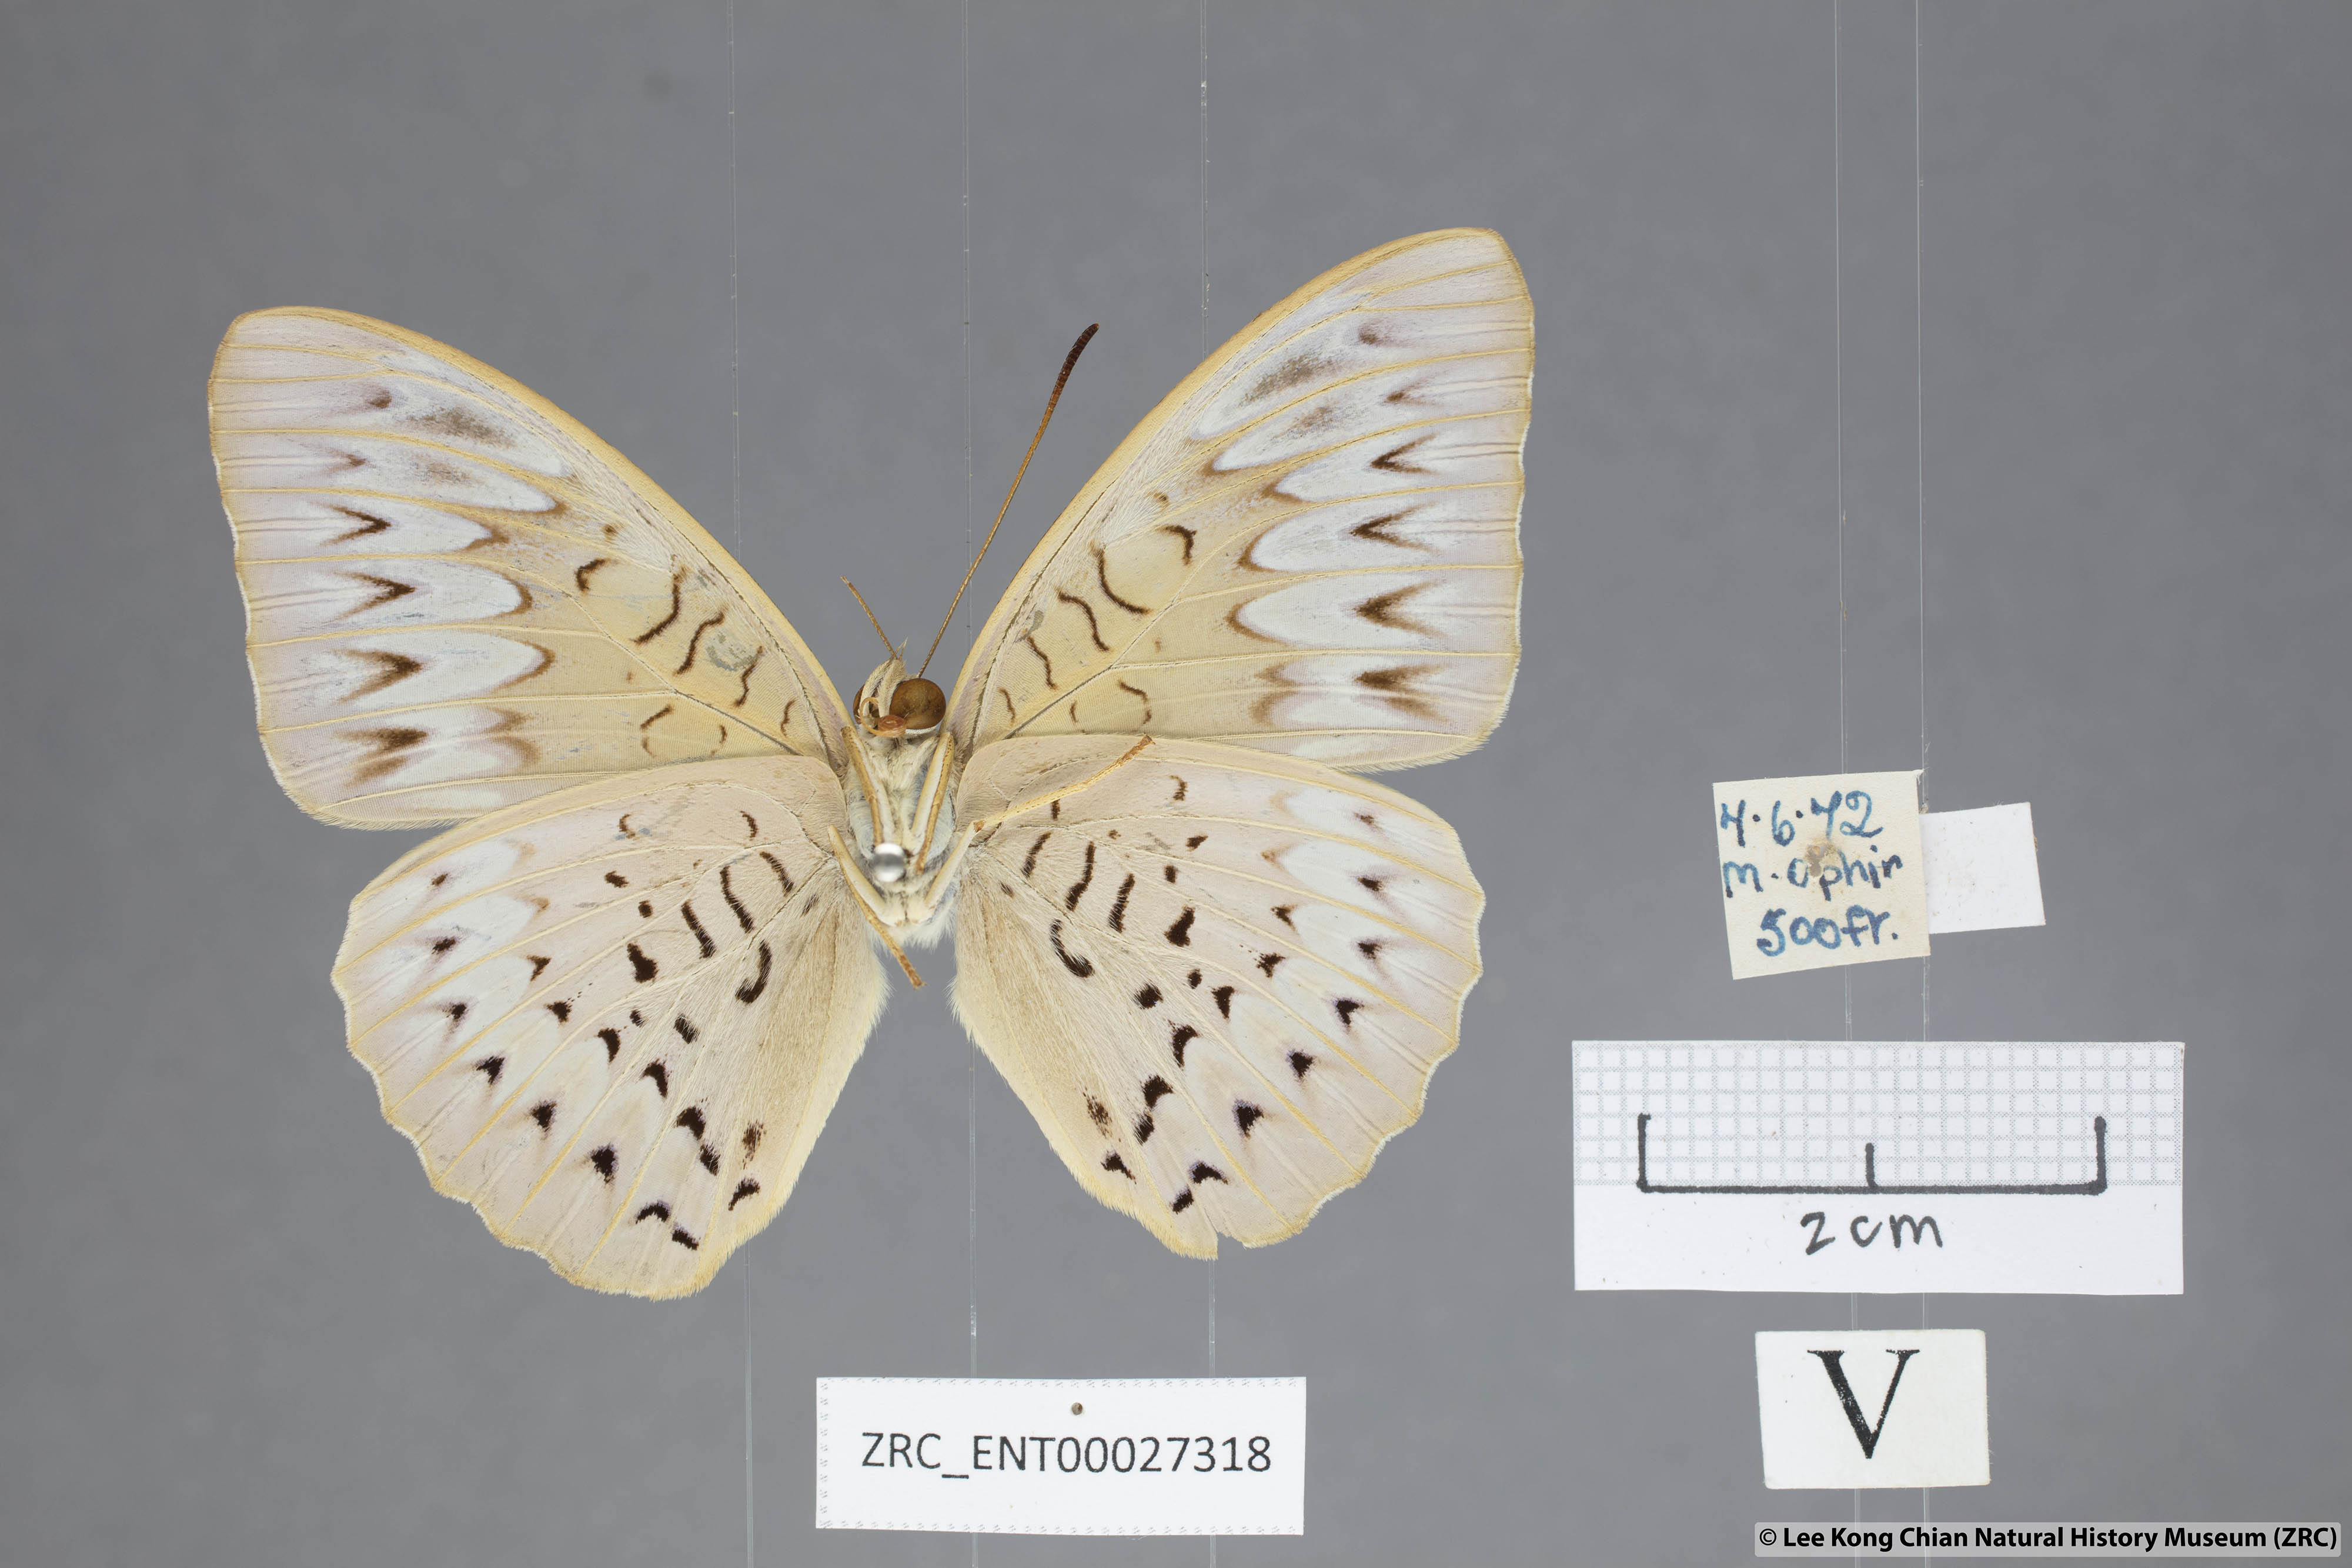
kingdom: Animalia
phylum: Arthropoda
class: Insecta
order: Lepidoptera
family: Nymphalidae
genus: Tanaecia
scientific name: Tanaecia pelea
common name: Malay viscount
